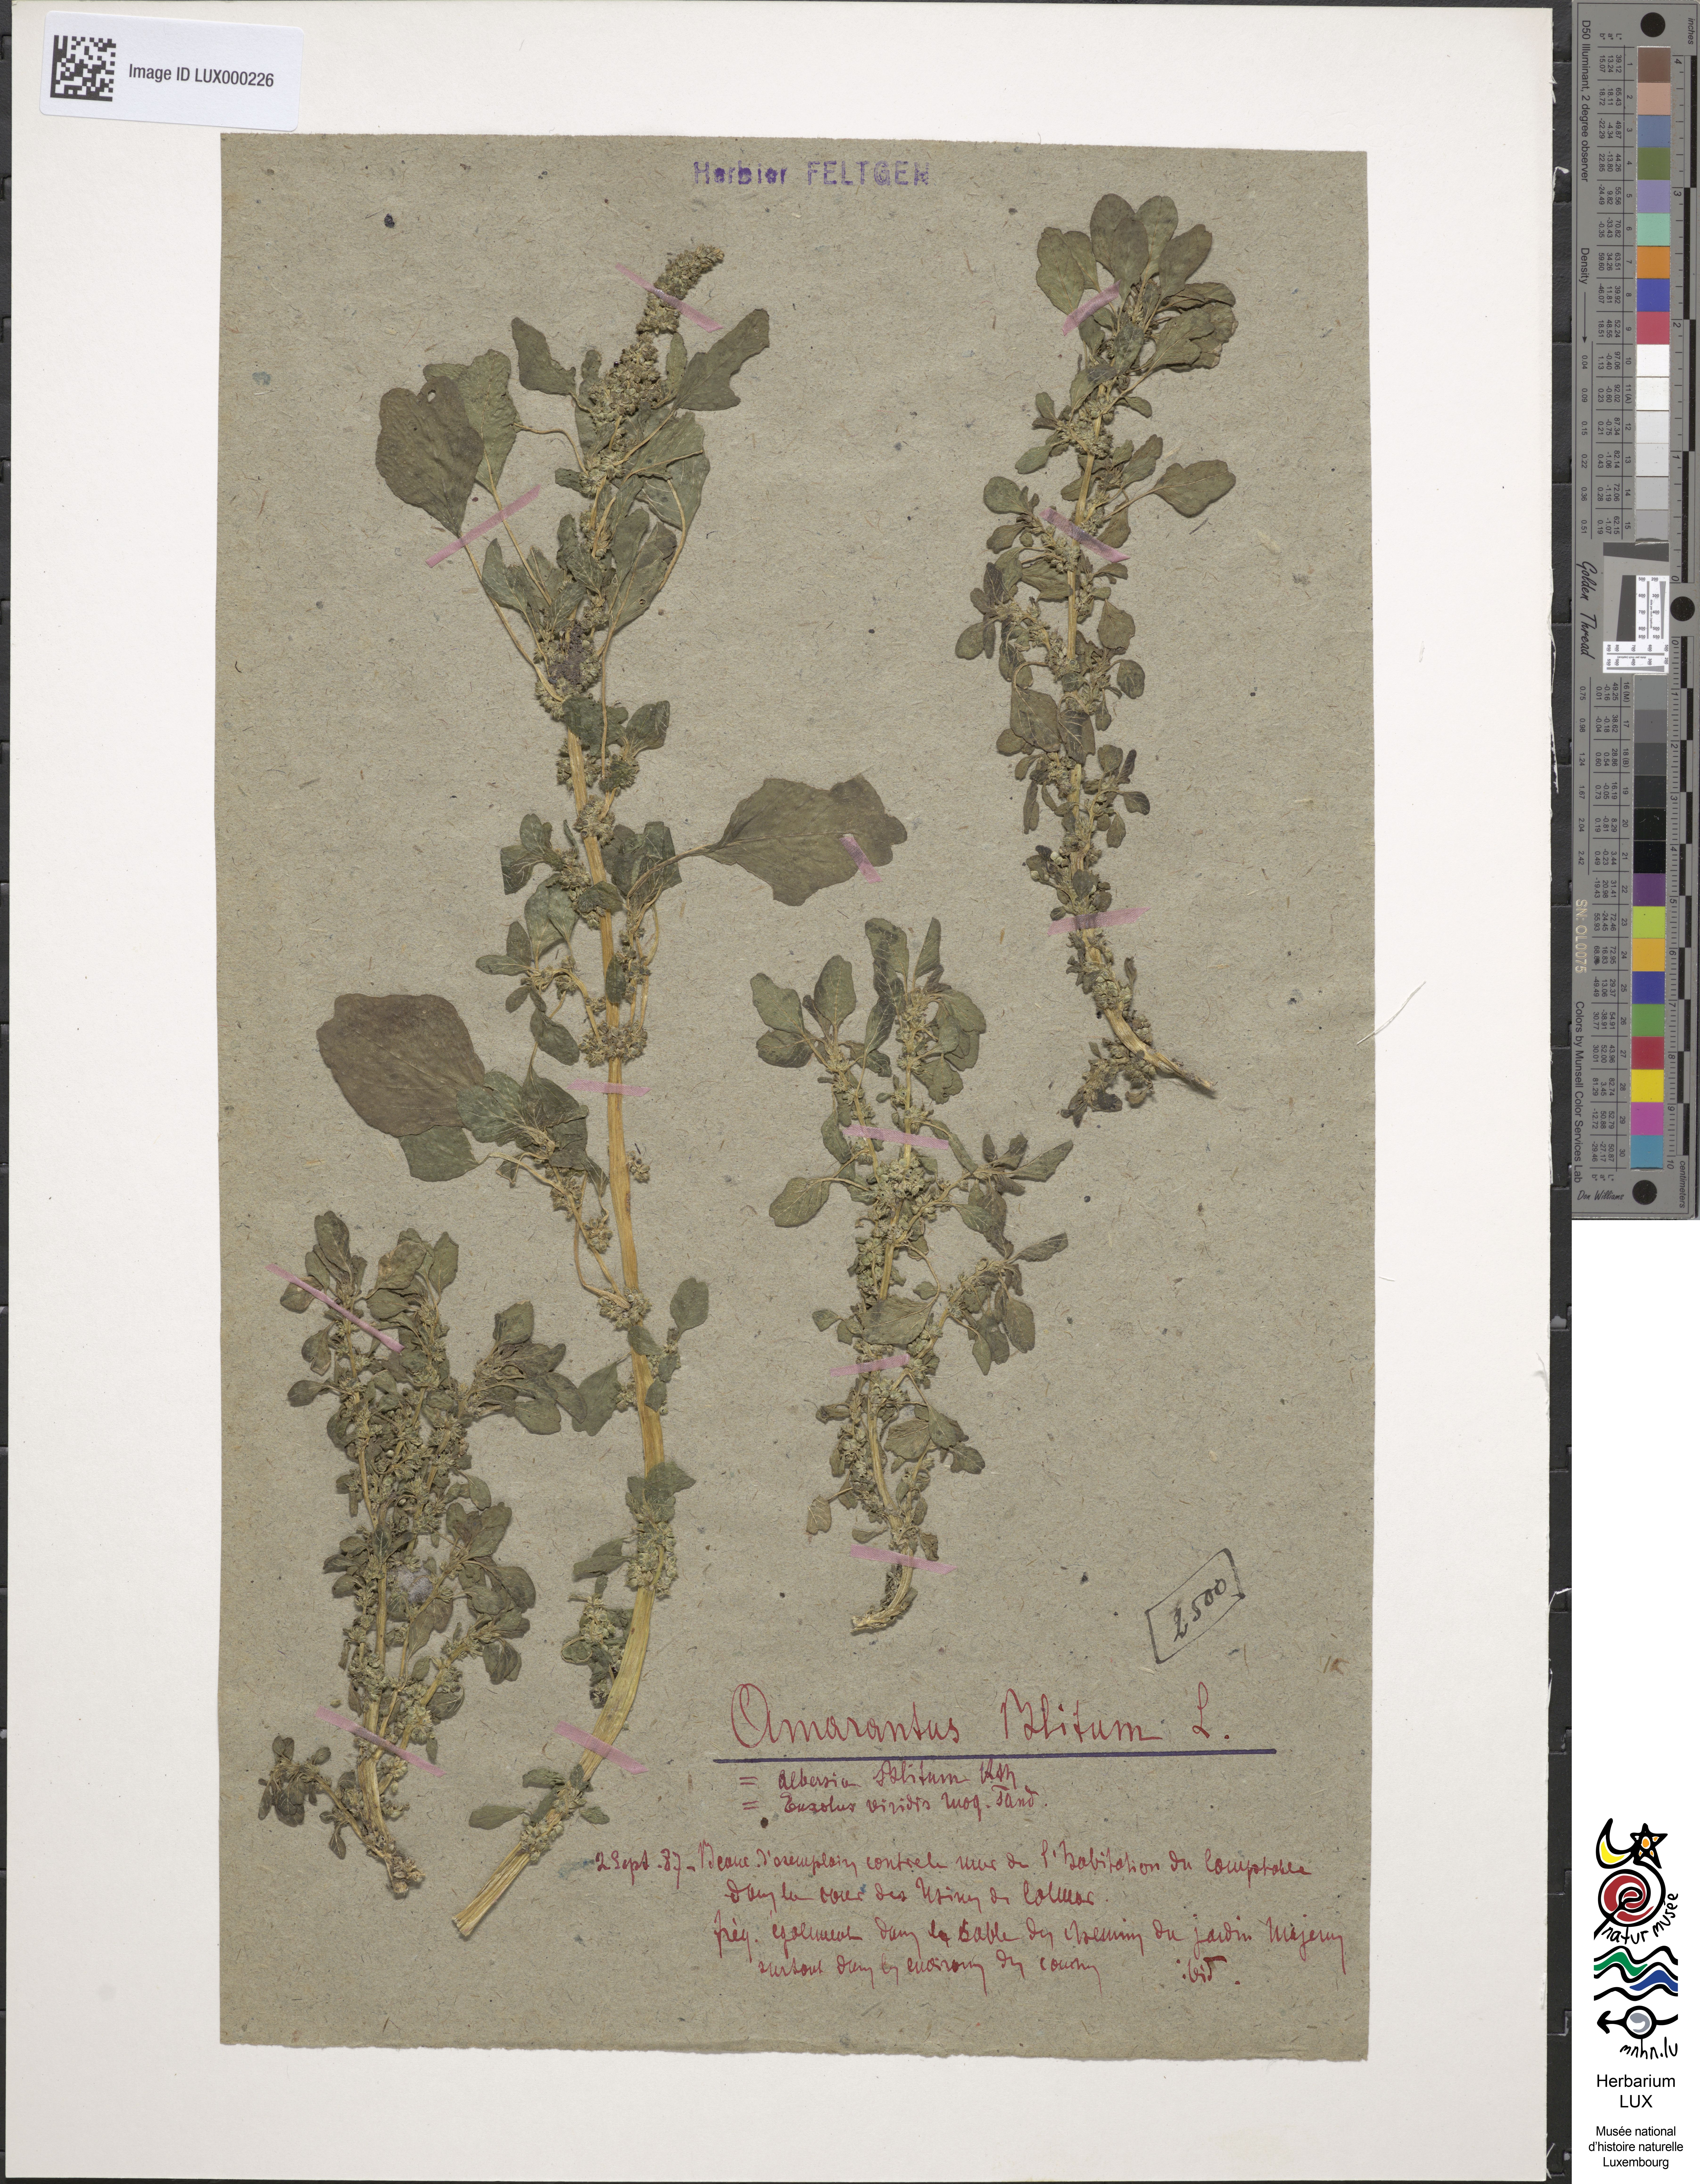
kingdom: Plantae
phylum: Tracheophyta
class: Magnoliopsida
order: Caryophyllales
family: Amaranthaceae
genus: Amaranthus
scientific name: Amaranthus blitum
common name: Purple amaranth
